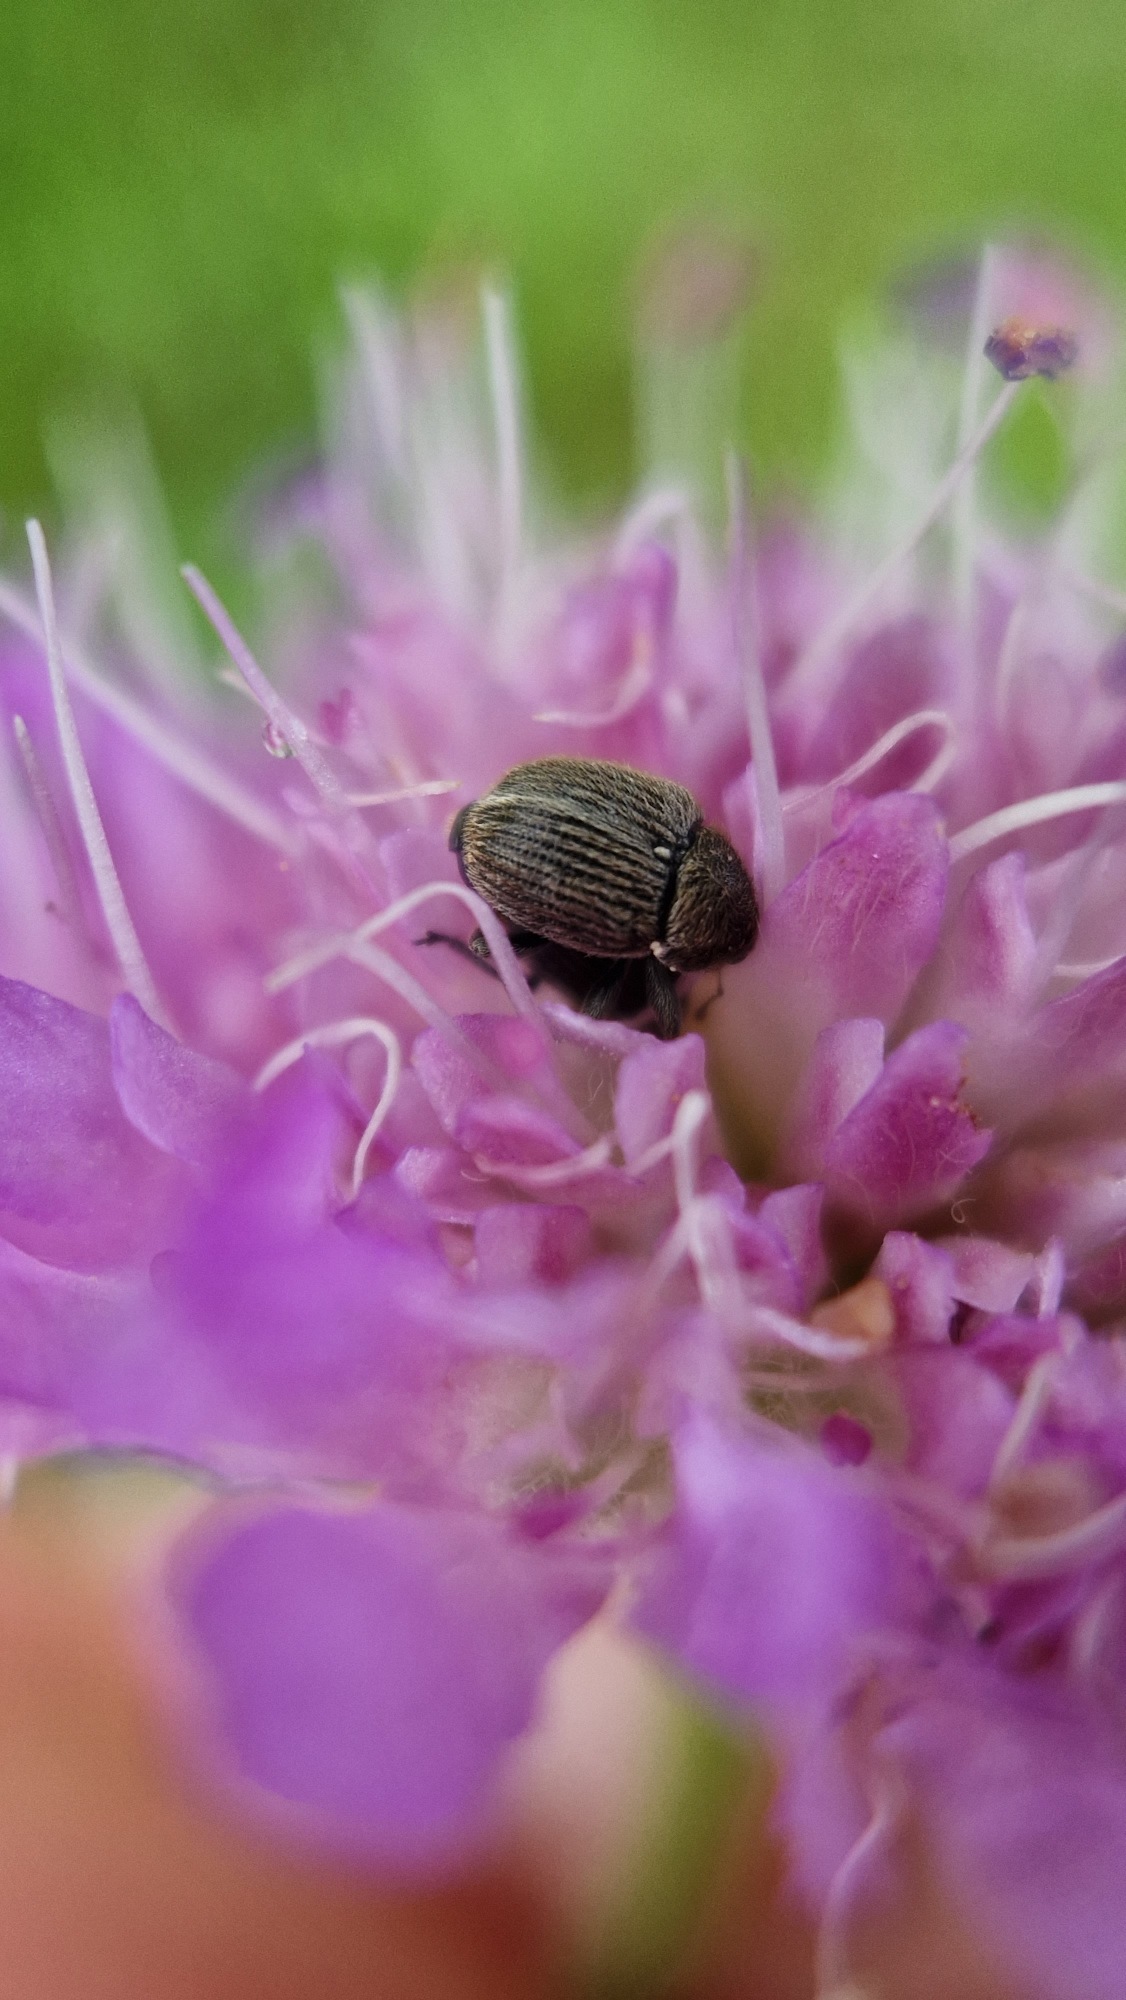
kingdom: Animalia
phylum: Arthropoda
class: Insecta
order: Coleoptera
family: Curculionidae
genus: Cleopomiarus
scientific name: Cleopomiarus graminis
